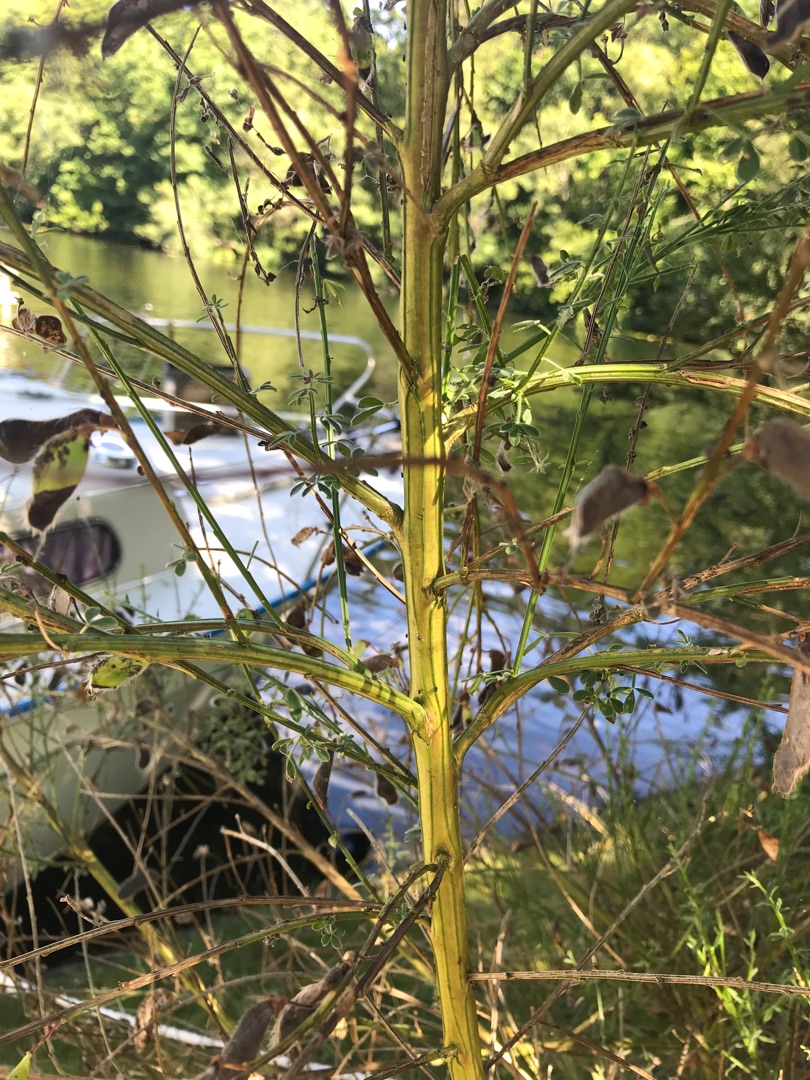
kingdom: Plantae
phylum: Tracheophyta
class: Magnoliopsida
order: Fabales
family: Fabaceae
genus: Cytisus
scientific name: Cytisus scoparius
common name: Almindelig gyvel
